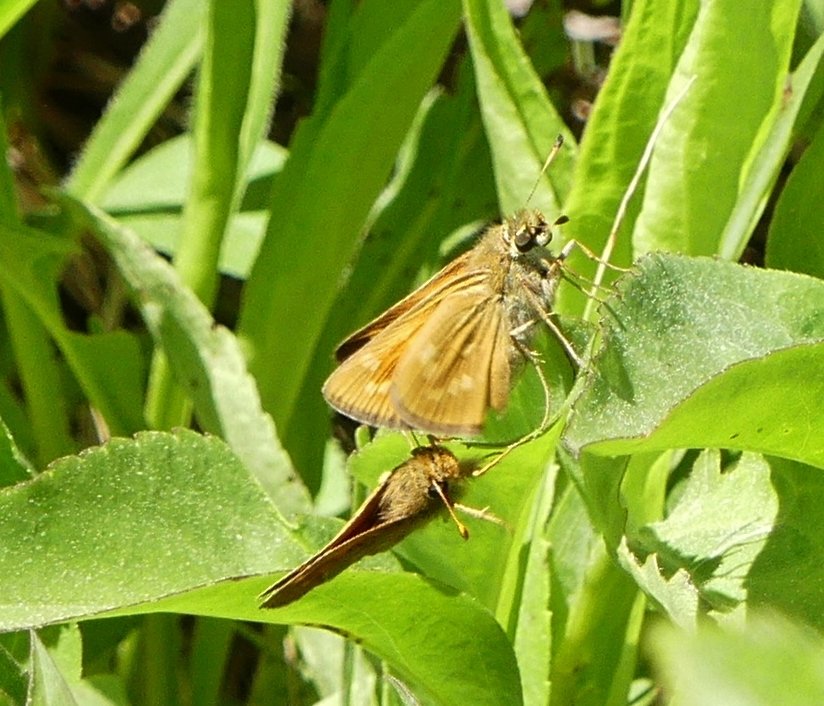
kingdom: Animalia
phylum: Arthropoda
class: Insecta
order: Lepidoptera
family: Hesperiidae
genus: Hesperia
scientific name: Hesperia sassacus
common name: Sassacus Skipper
